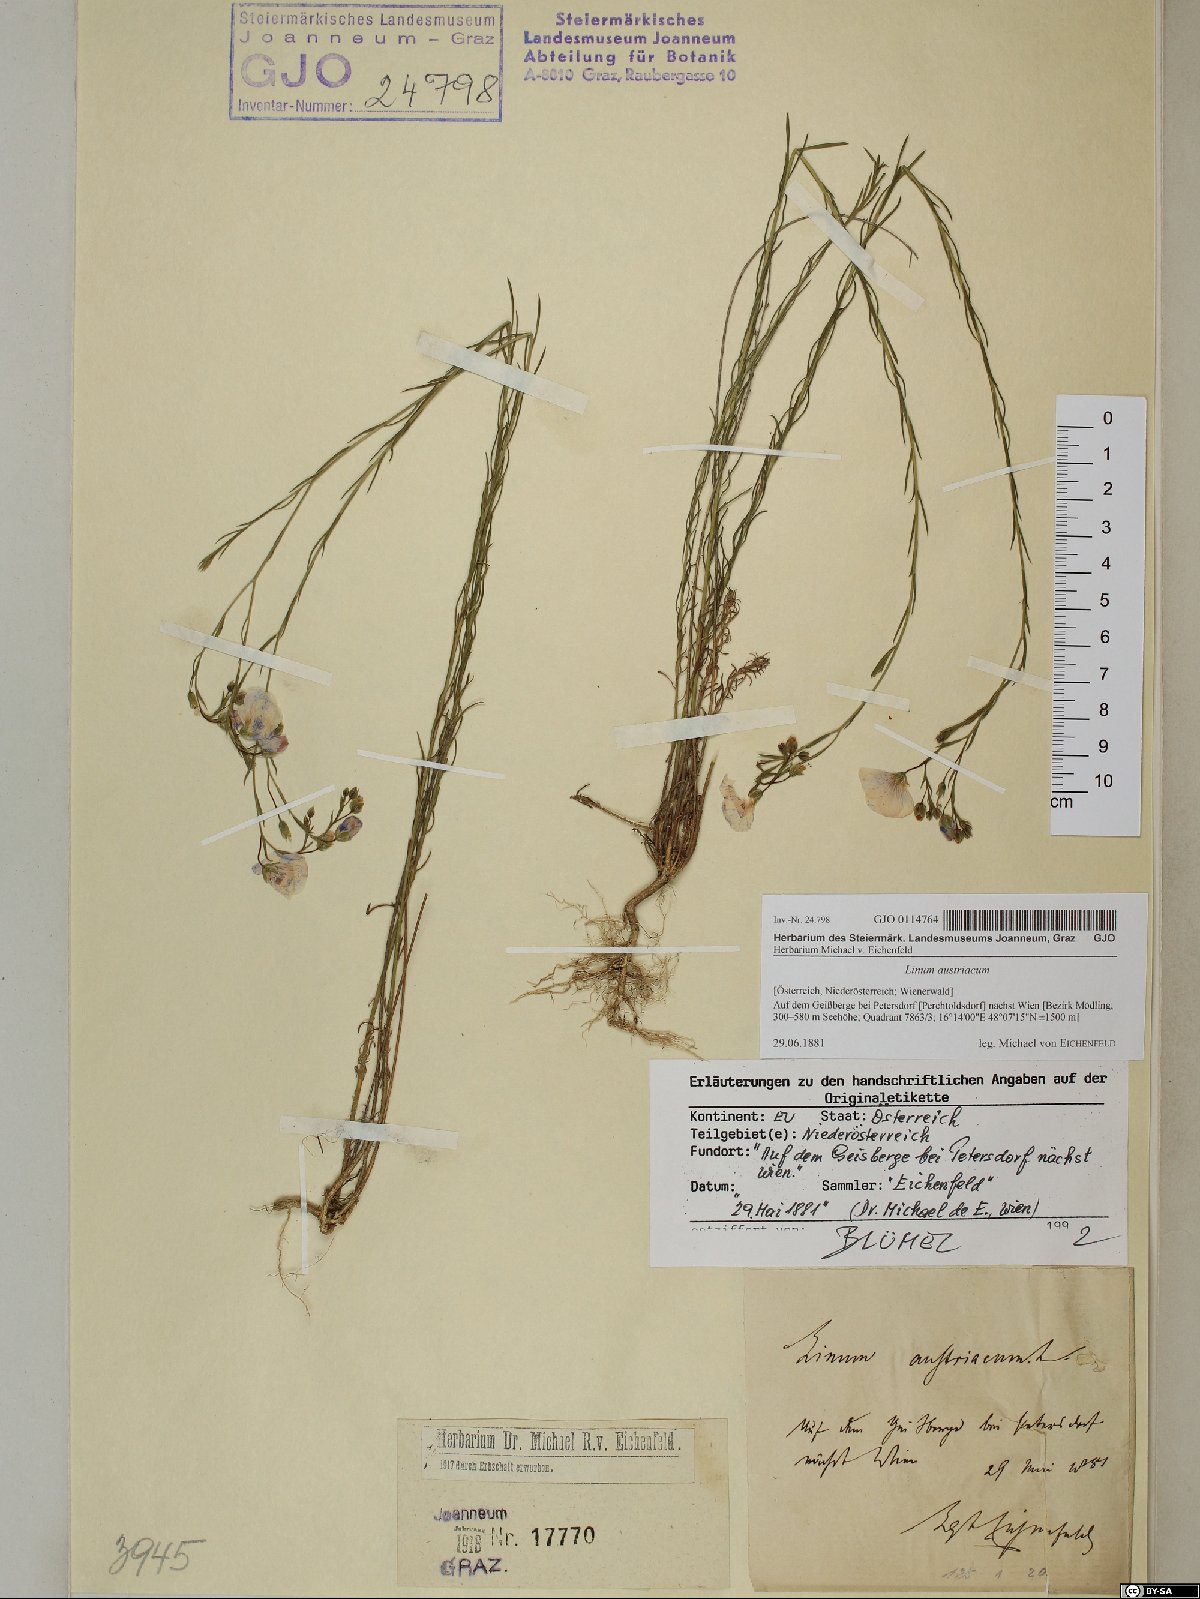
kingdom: Plantae
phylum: Tracheophyta
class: Magnoliopsida
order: Malpighiales
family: Linaceae
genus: Linum
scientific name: Linum austriacum
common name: Austrian flax
